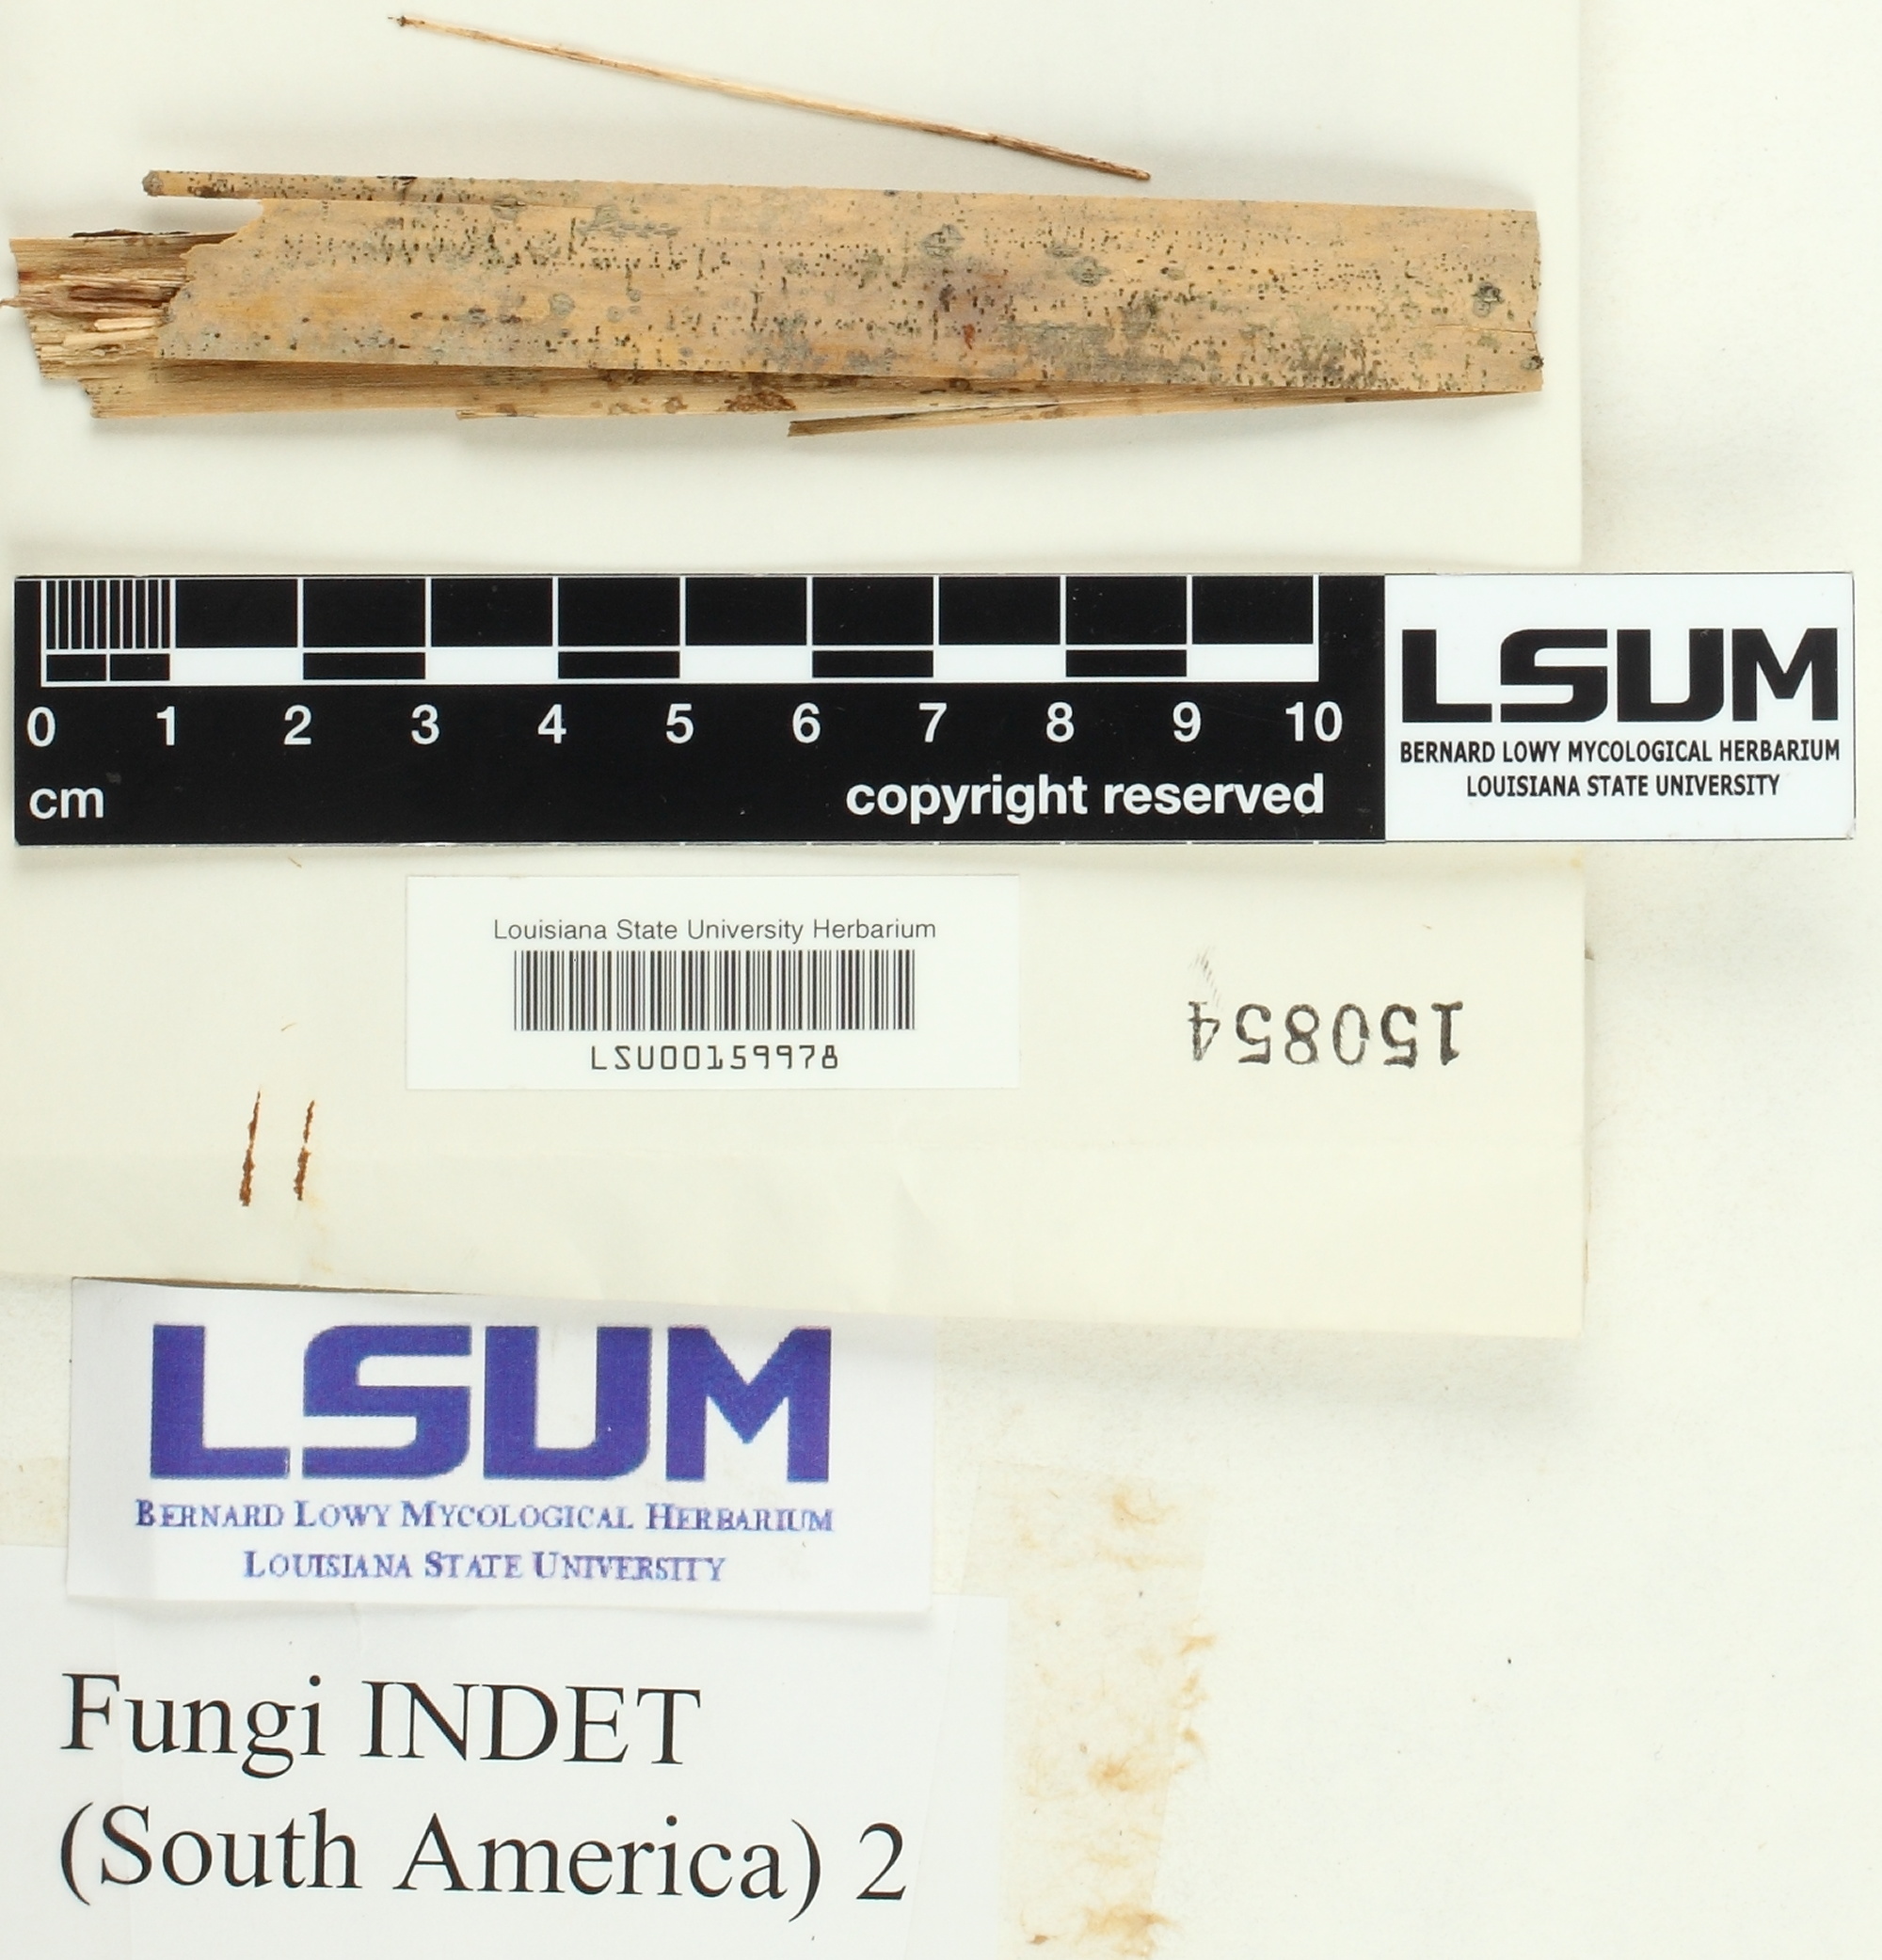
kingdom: Fungi
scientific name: Fungi
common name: Fungi
